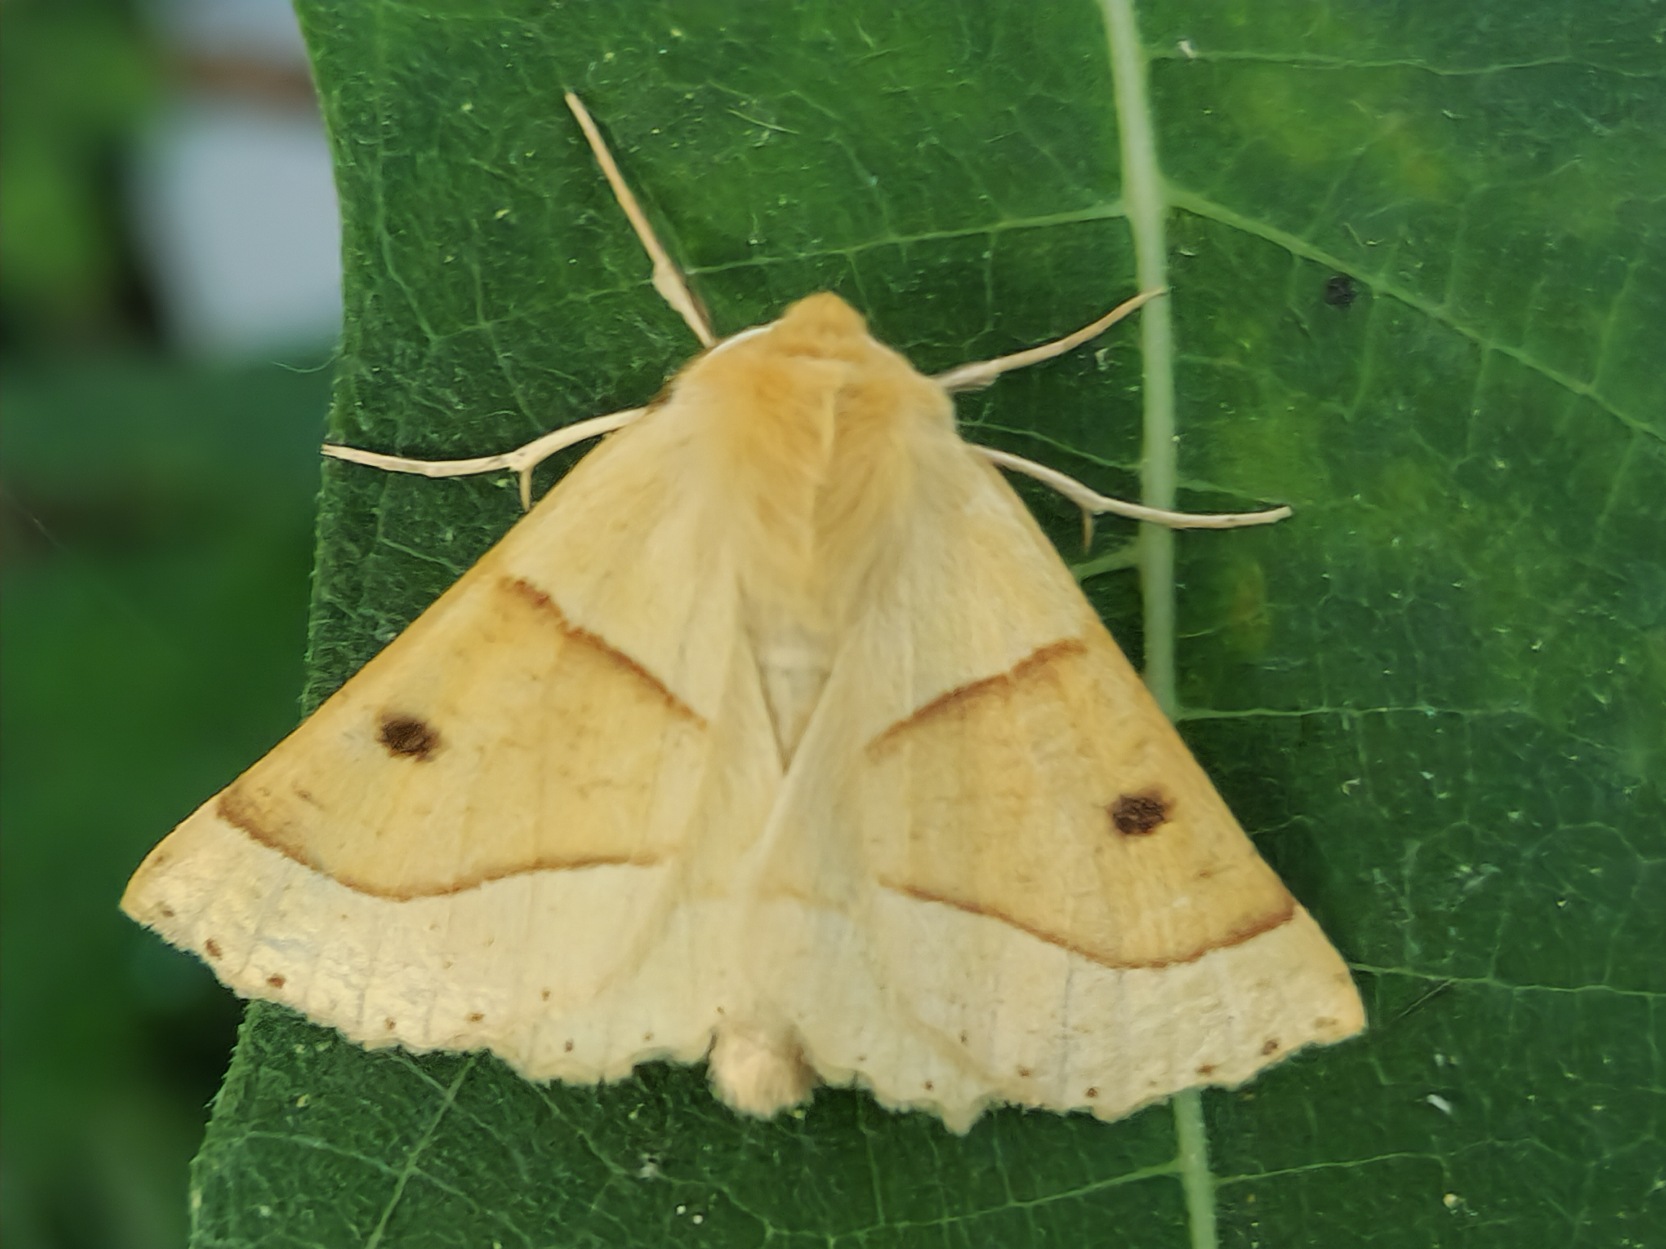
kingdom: Animalia
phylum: Arthropoda
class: Insecta
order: Lepidoptera
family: Geometridae
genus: Crocallis
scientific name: Crocallis elinguaria
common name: Okkergul rovmåler
